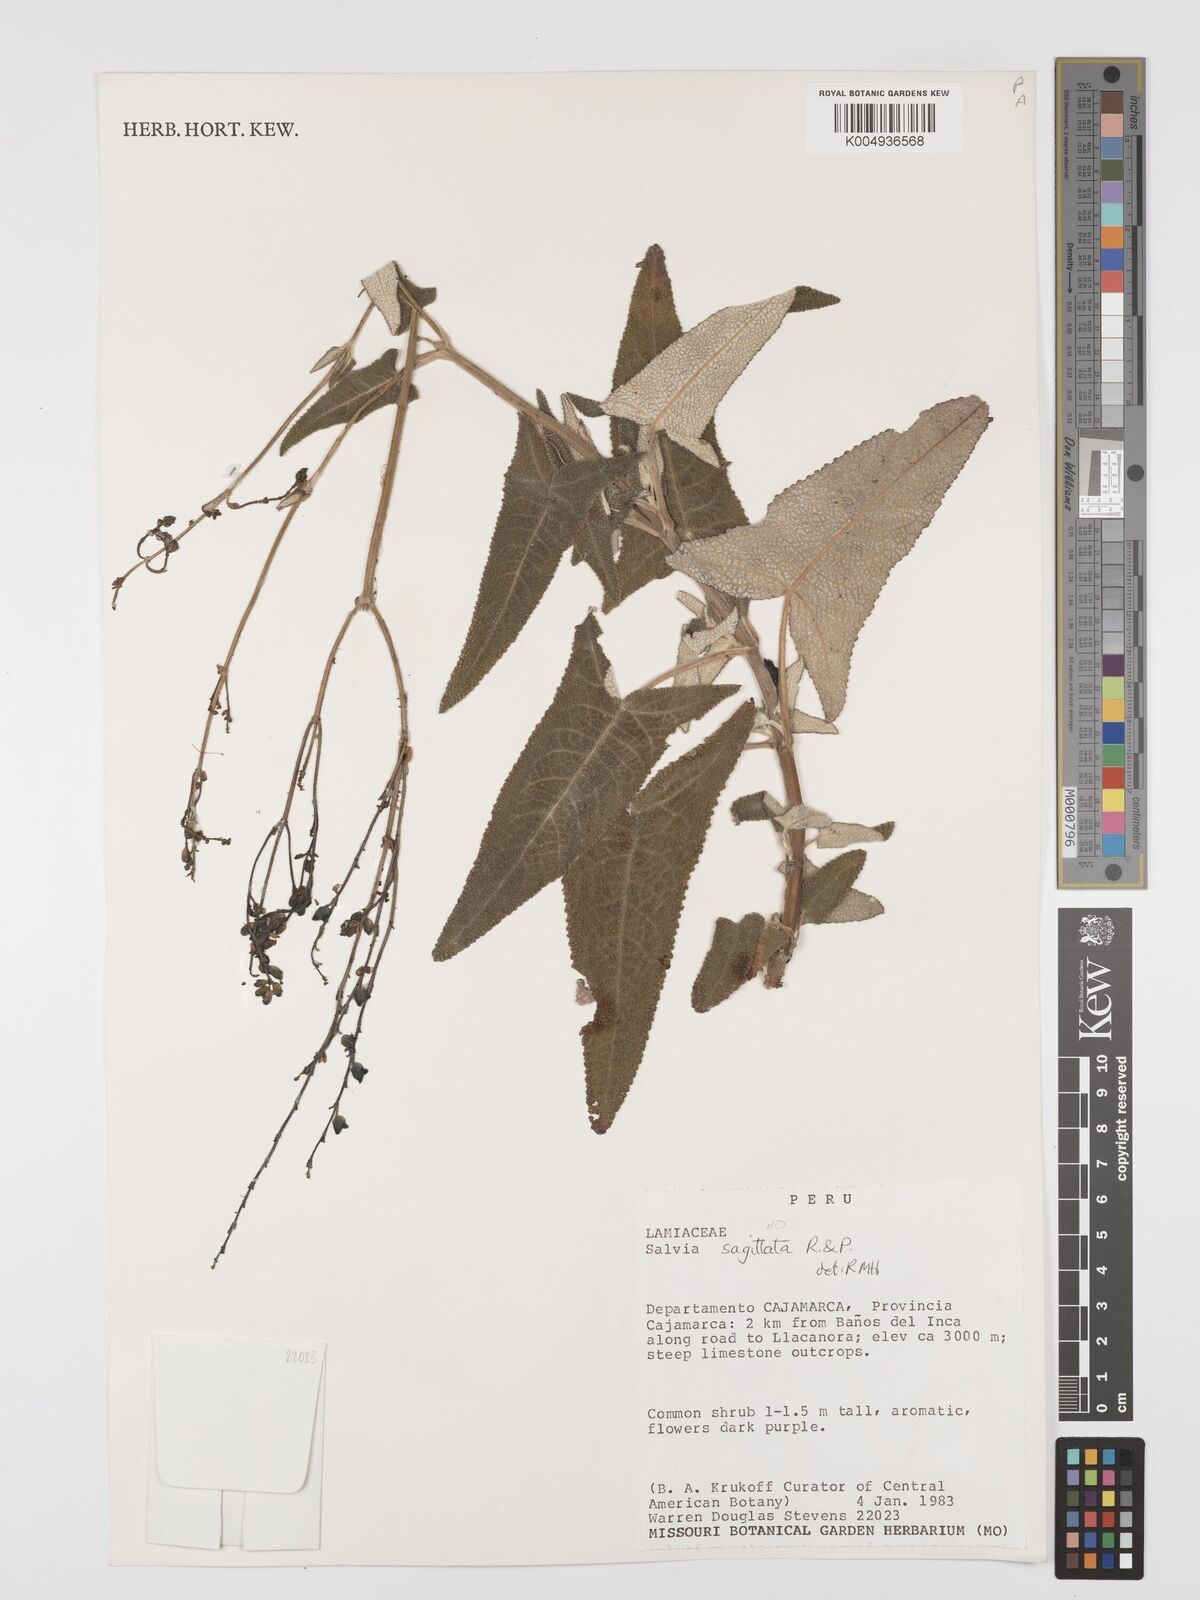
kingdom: Plantae
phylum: Tracheophyta
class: Magnoliopsida
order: Lamiales
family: Lamiaceae
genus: Salvia
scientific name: Salvia sagittata
